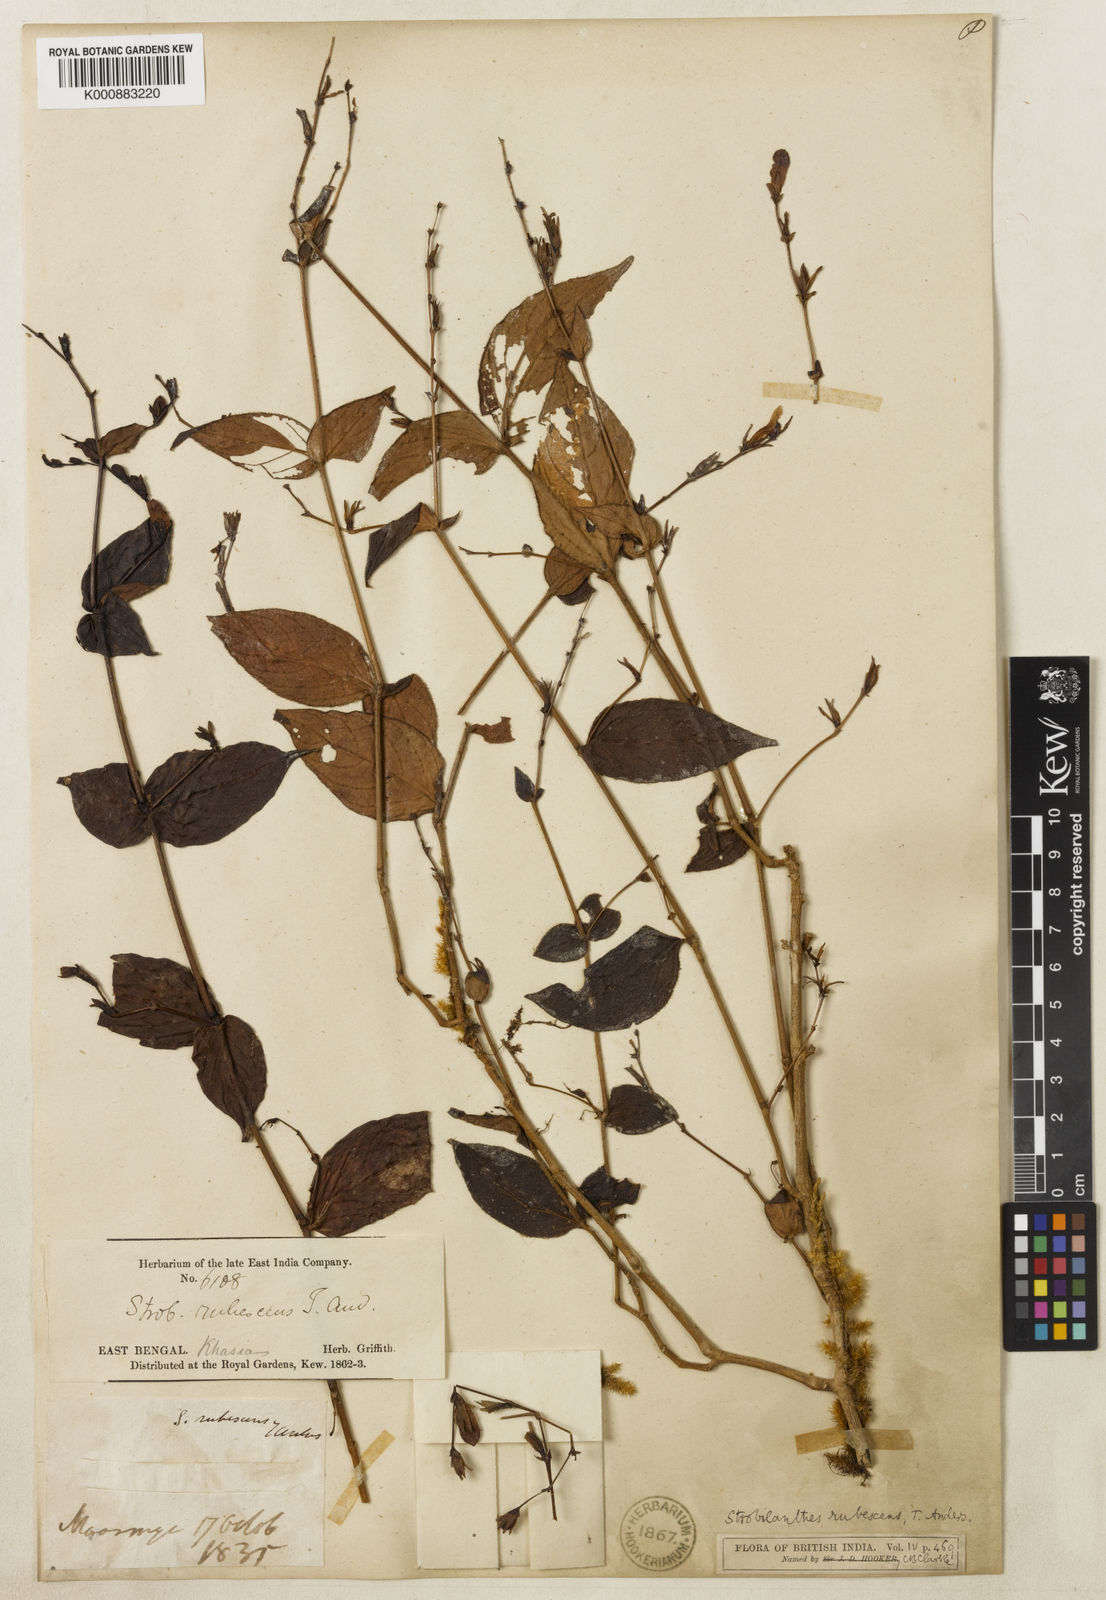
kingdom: Plantae
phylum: Tracheophyta
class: Magnoliopsida
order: Lamiales
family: Acanthaceae
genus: Strobilanthes
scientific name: Strobilanthes rubescens
